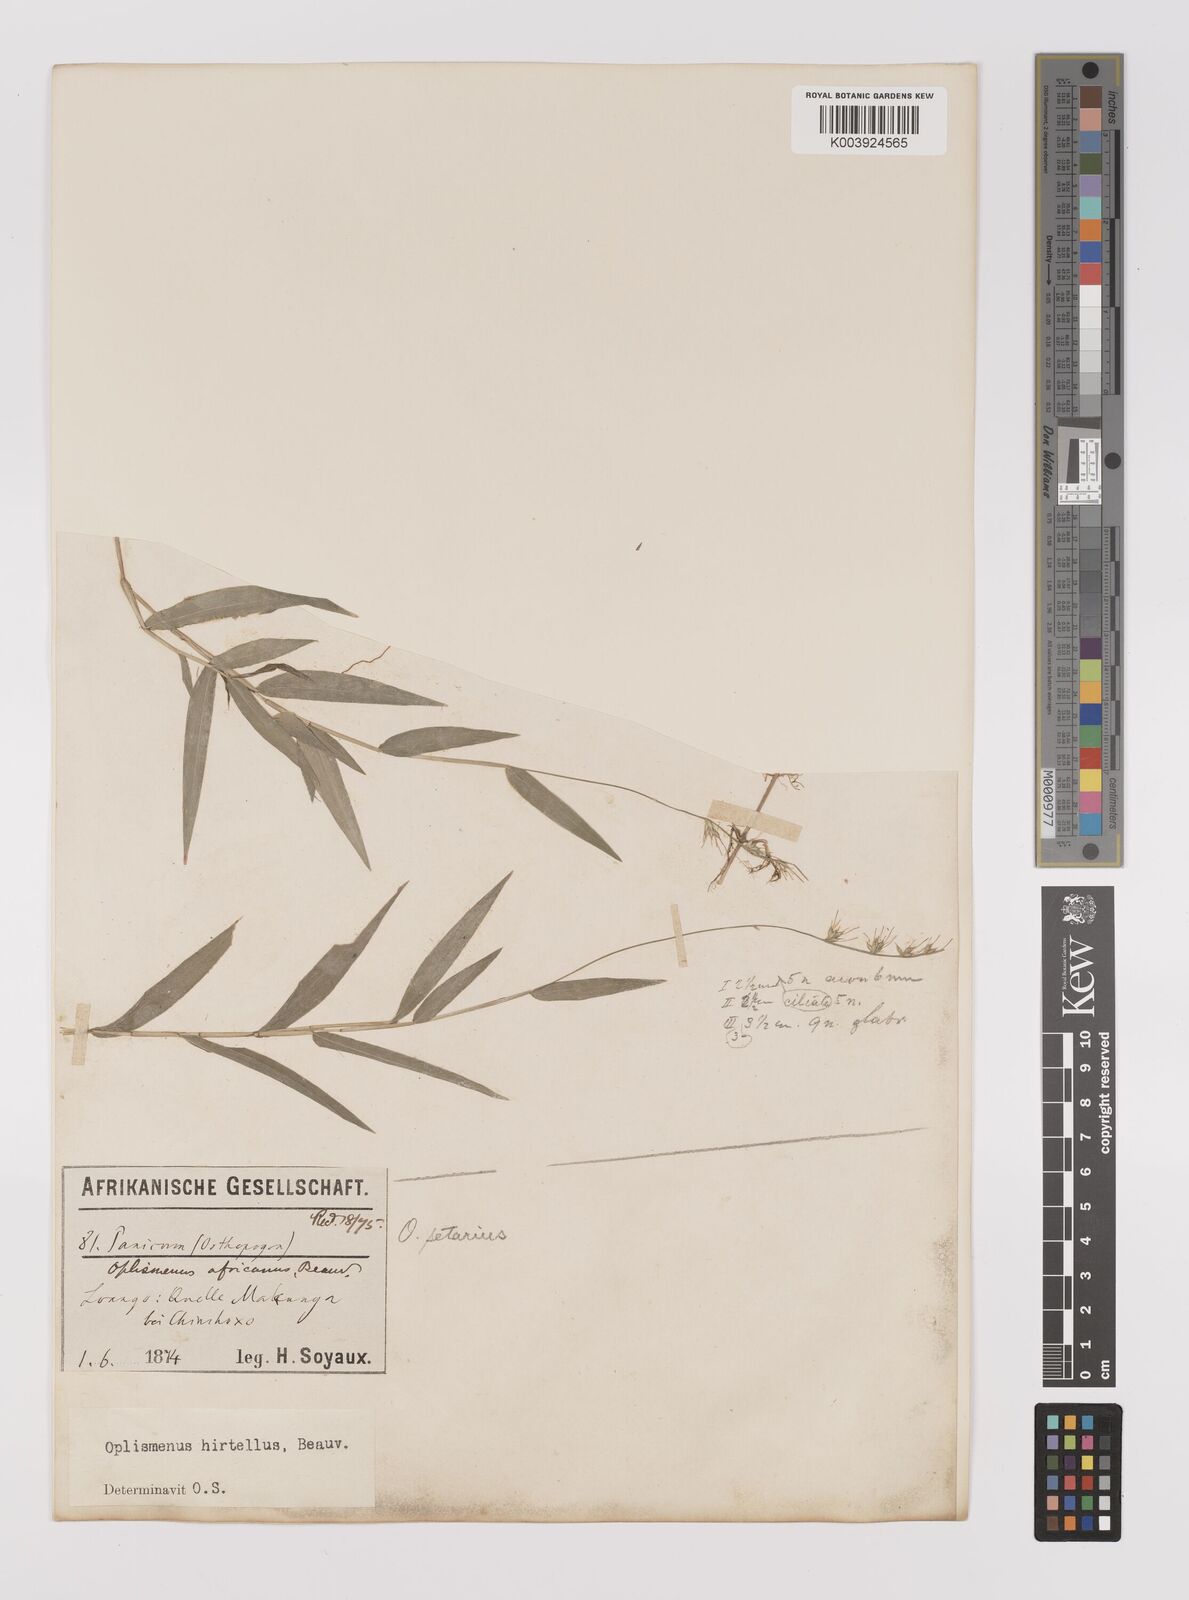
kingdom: Plantae
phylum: Tracheophyta
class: Liliopsida
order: Poales
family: Poaceae
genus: Oplismenus
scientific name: Oplismenus hirtellus
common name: Basketgrass
